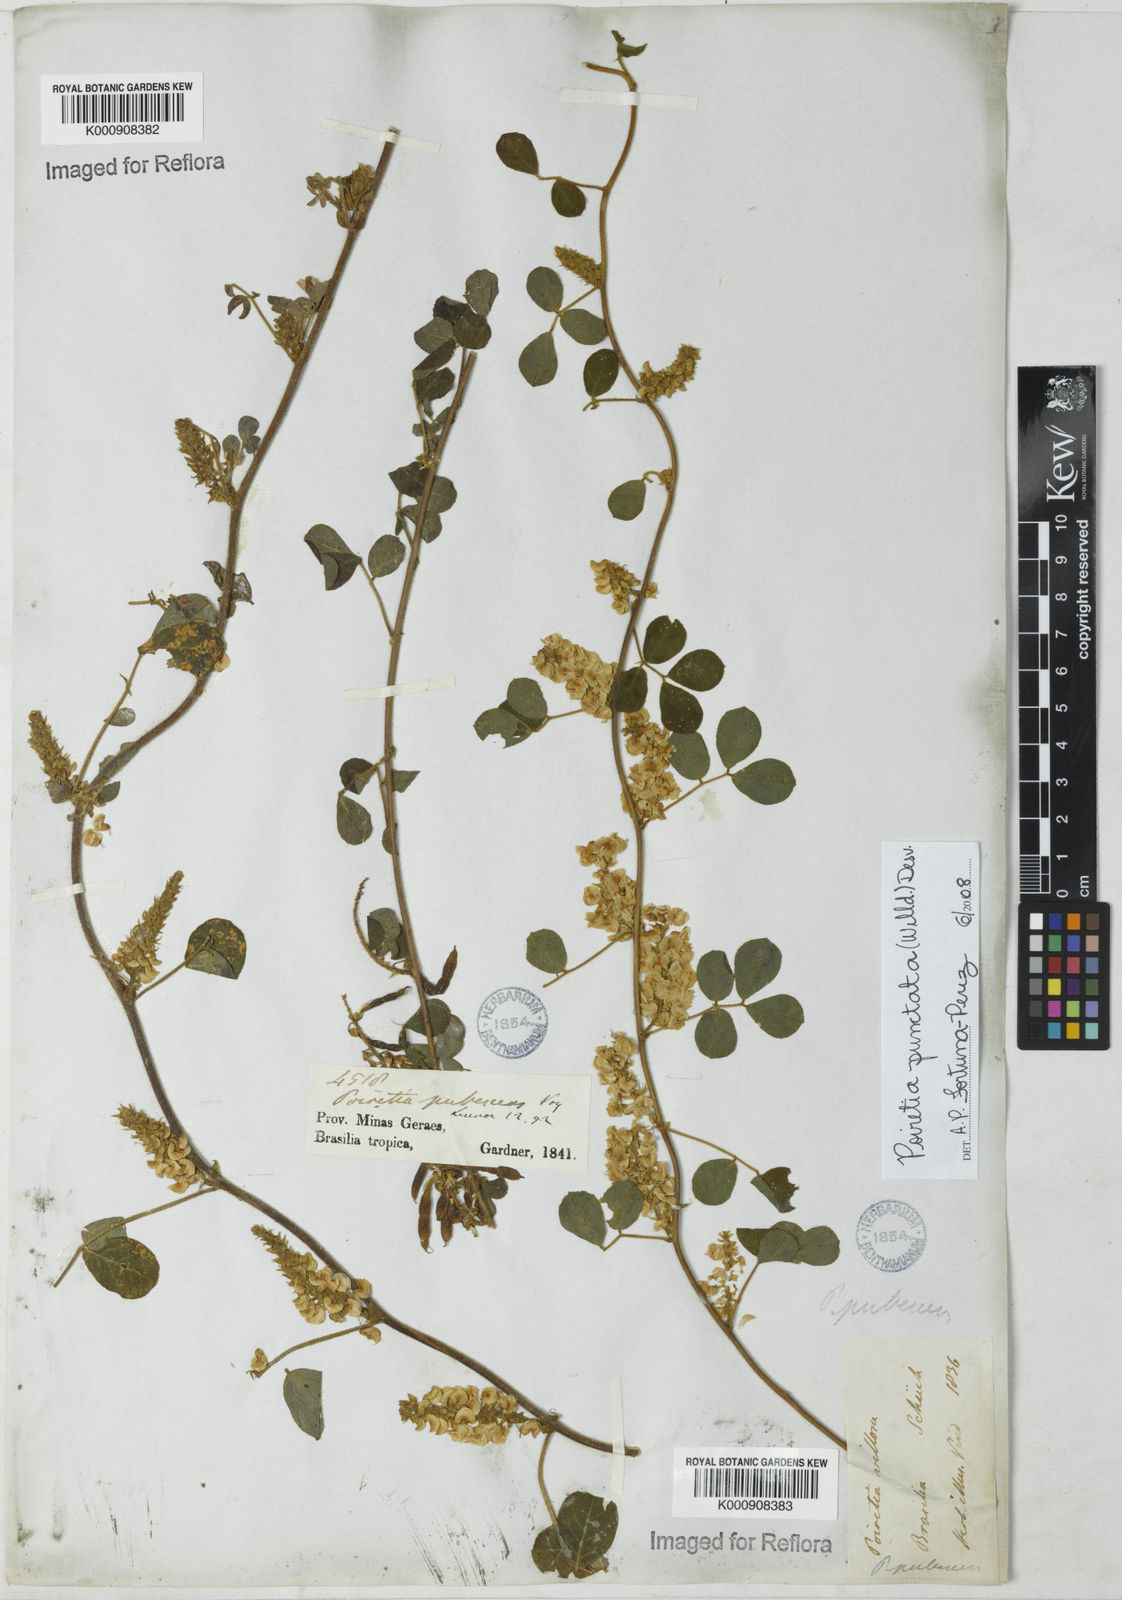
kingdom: Plantae
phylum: Tracheophyta
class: Magnoliopsida
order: Fabales
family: Fabaceae
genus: Poiretia
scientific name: Poiretia punctata
